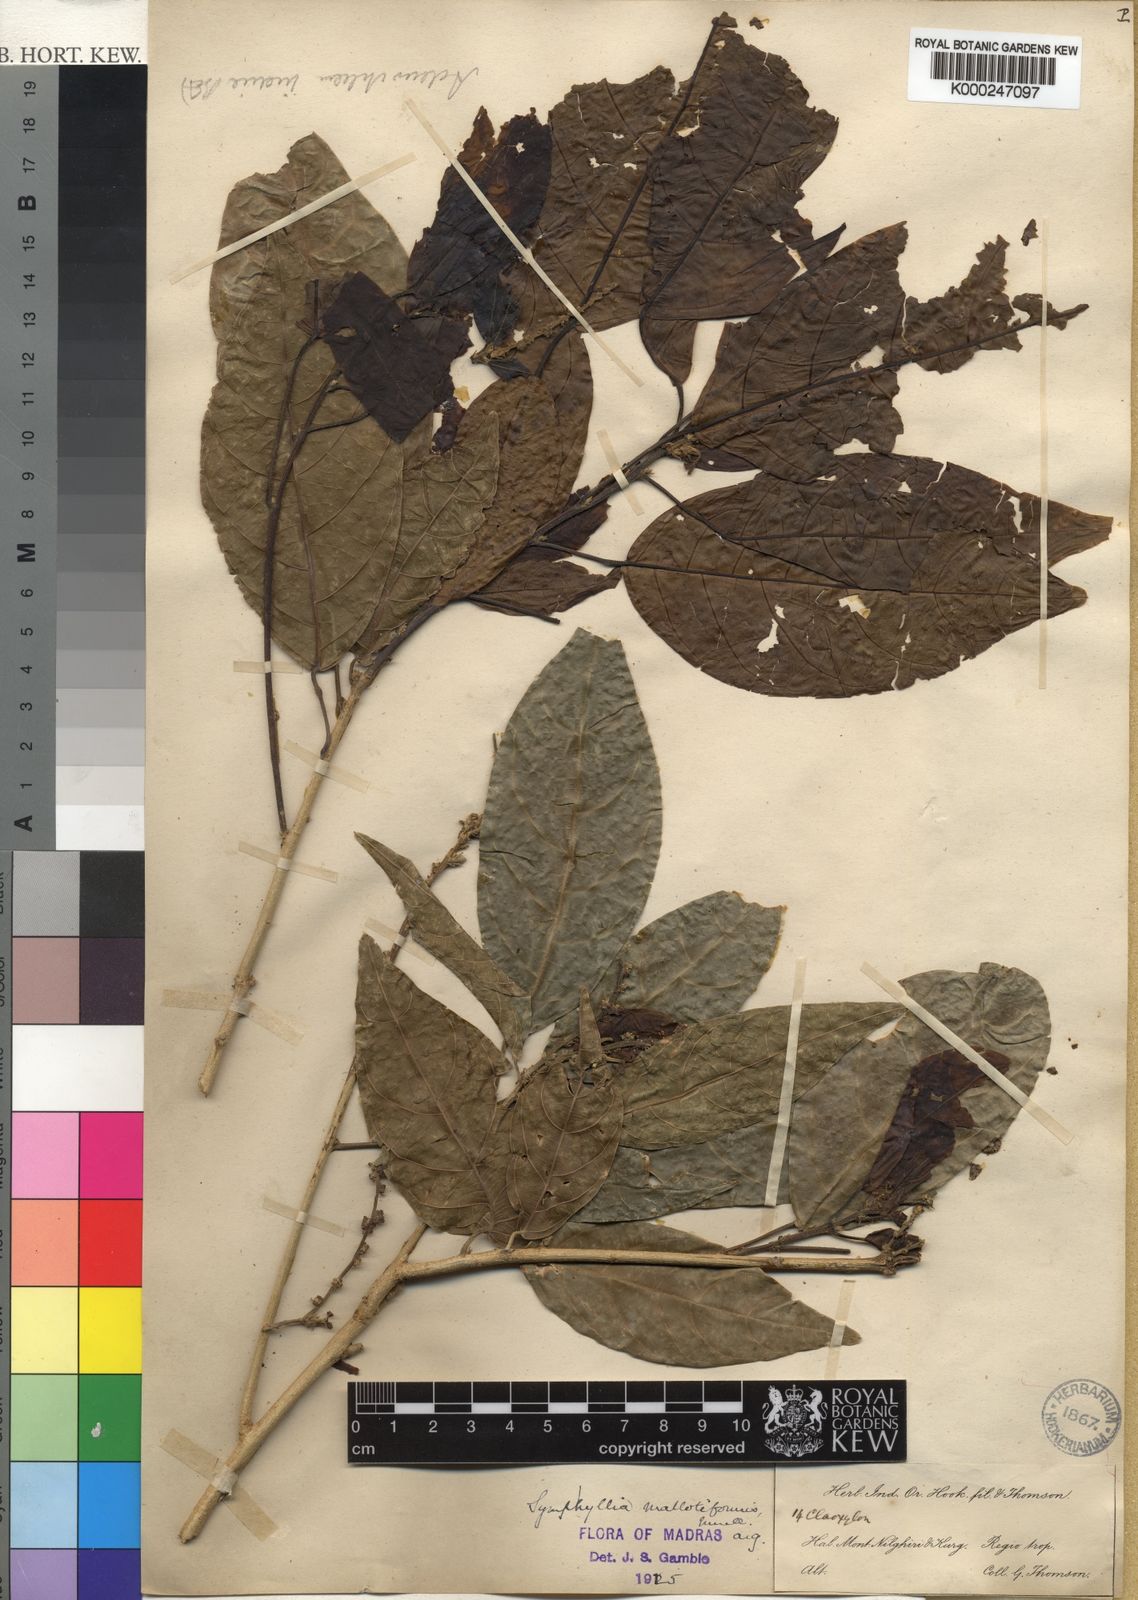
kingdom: Plantae
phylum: Tracheophyta
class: Magnoliopsida
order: Malpighiales
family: Euphorbiaceae
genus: Epiprinus
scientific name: Epiprinus
